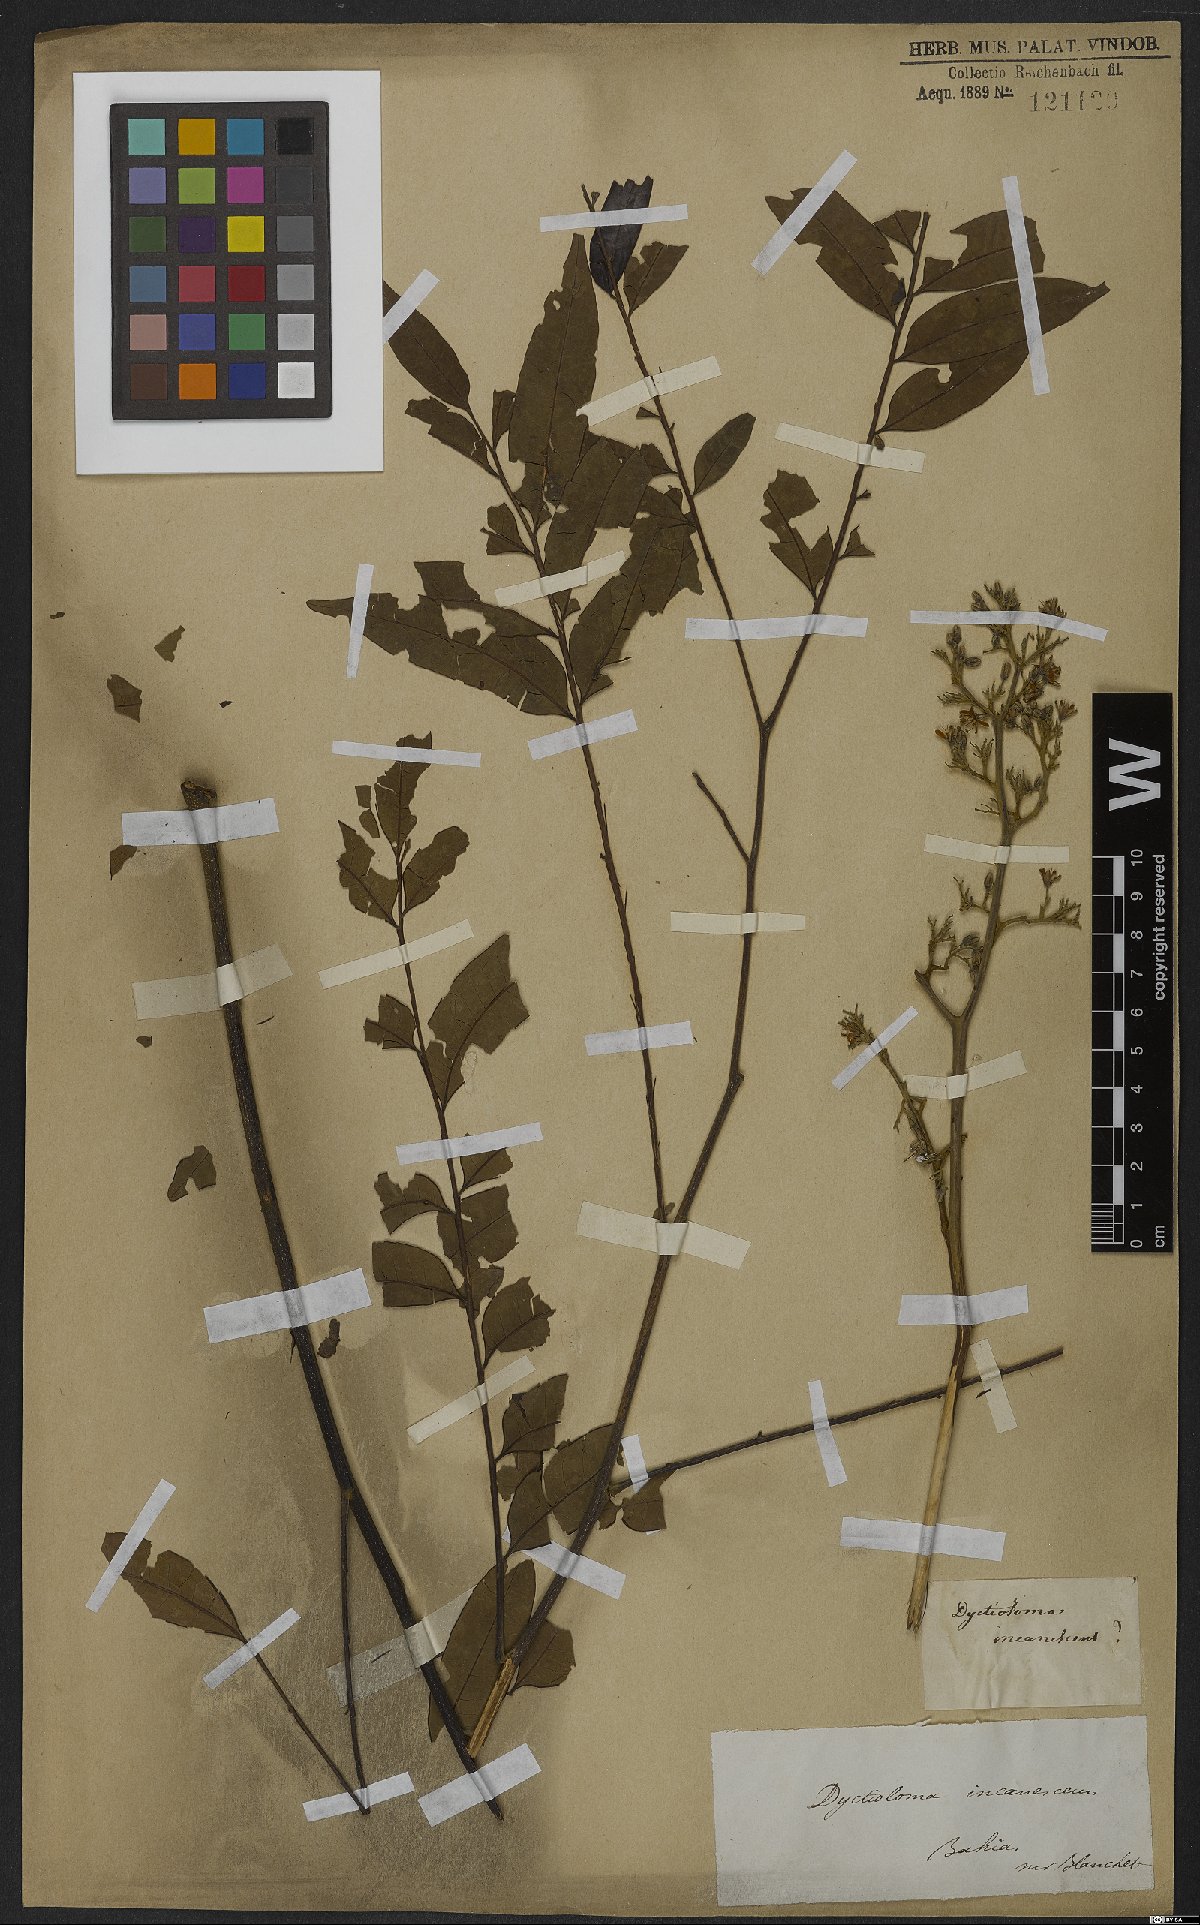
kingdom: Plantae
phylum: Tracheophyta
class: Magnoliopsida
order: Sapindales
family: Rutaceae
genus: Dictyoloma
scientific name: Dictyoloma vandellianum
